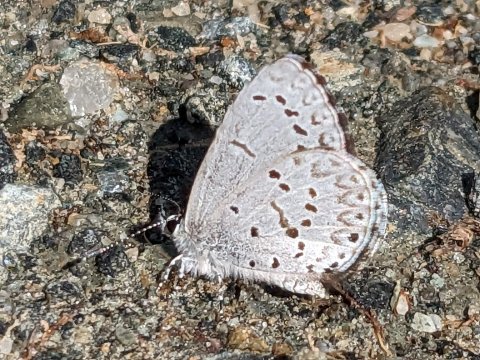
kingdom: Animalia
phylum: Arthropoda
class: Insecta
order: Lepidoptera
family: Lycaenidae
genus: Celastrina
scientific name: Celastrina
